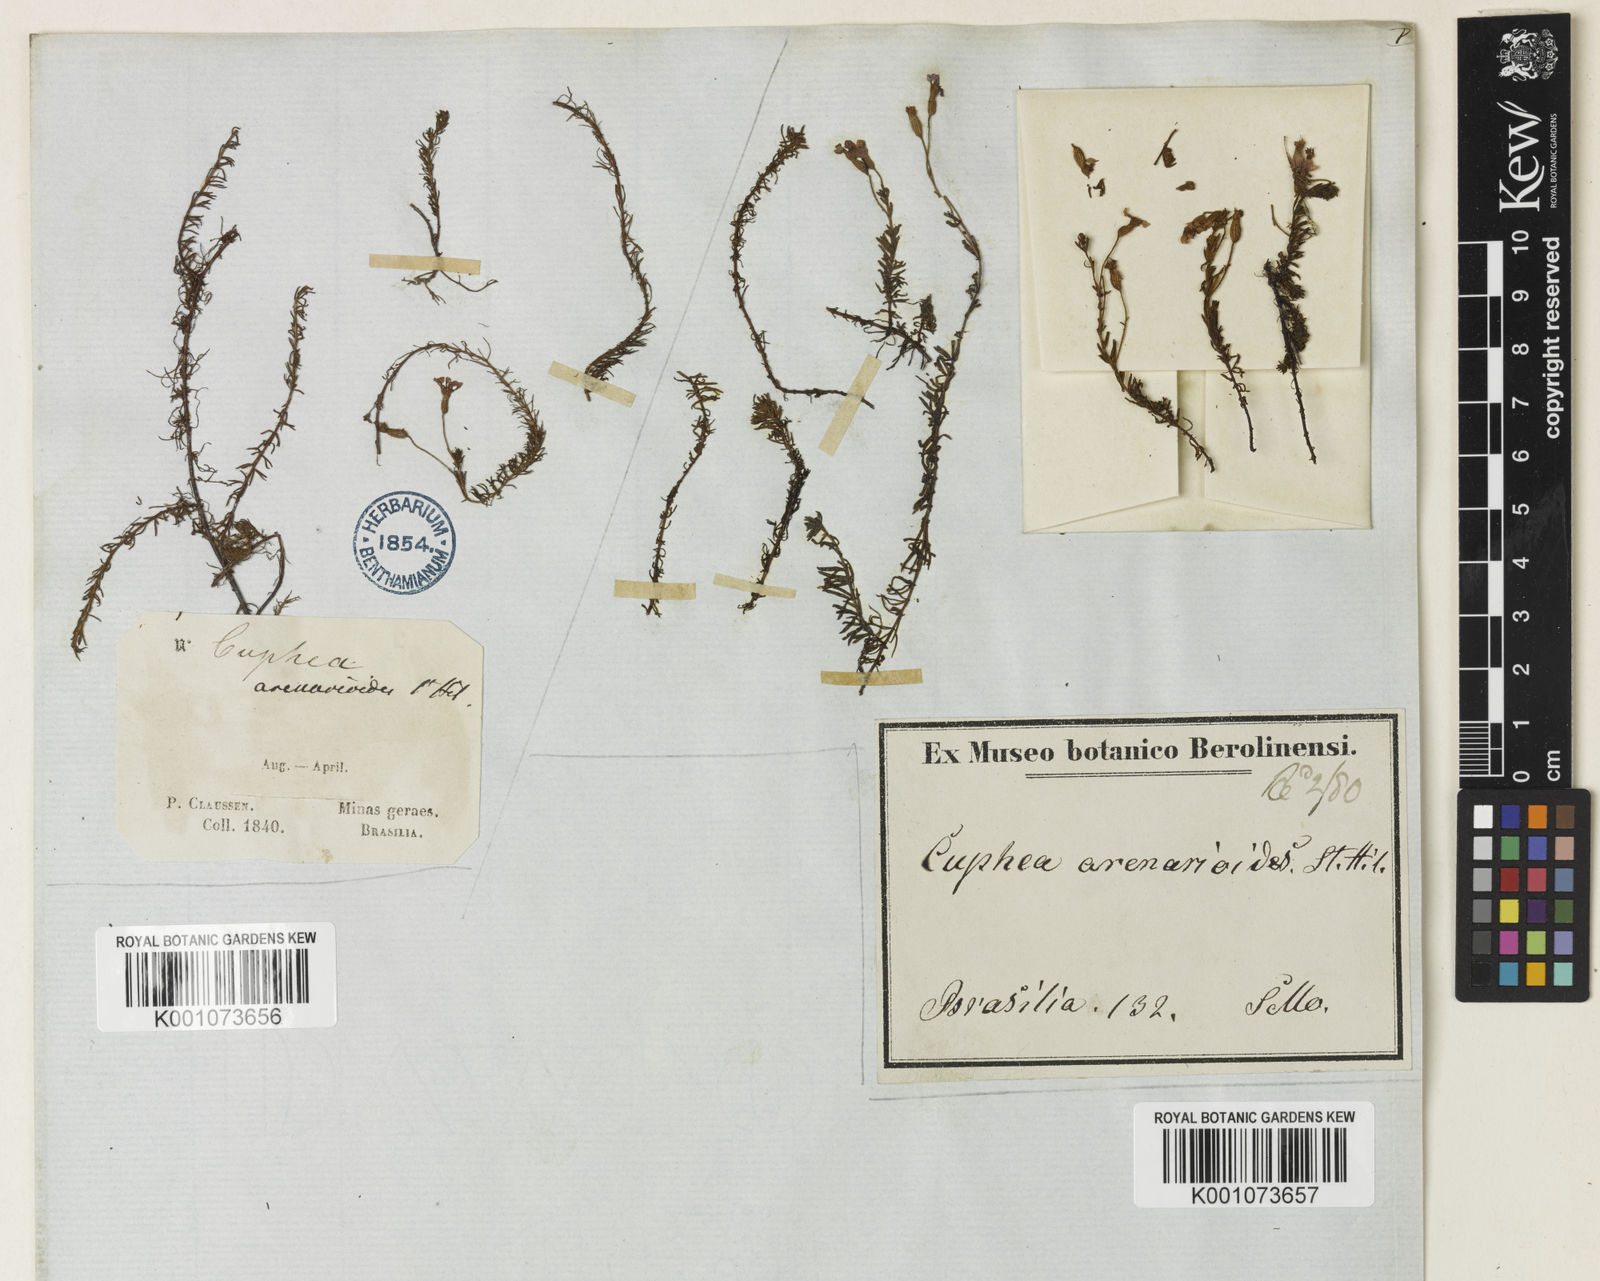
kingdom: Plantae
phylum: Tracheophyta
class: Magnoliopsida
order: Myrtales
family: Lythraceae
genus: Cuphea
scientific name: Cuphea arenarioides
